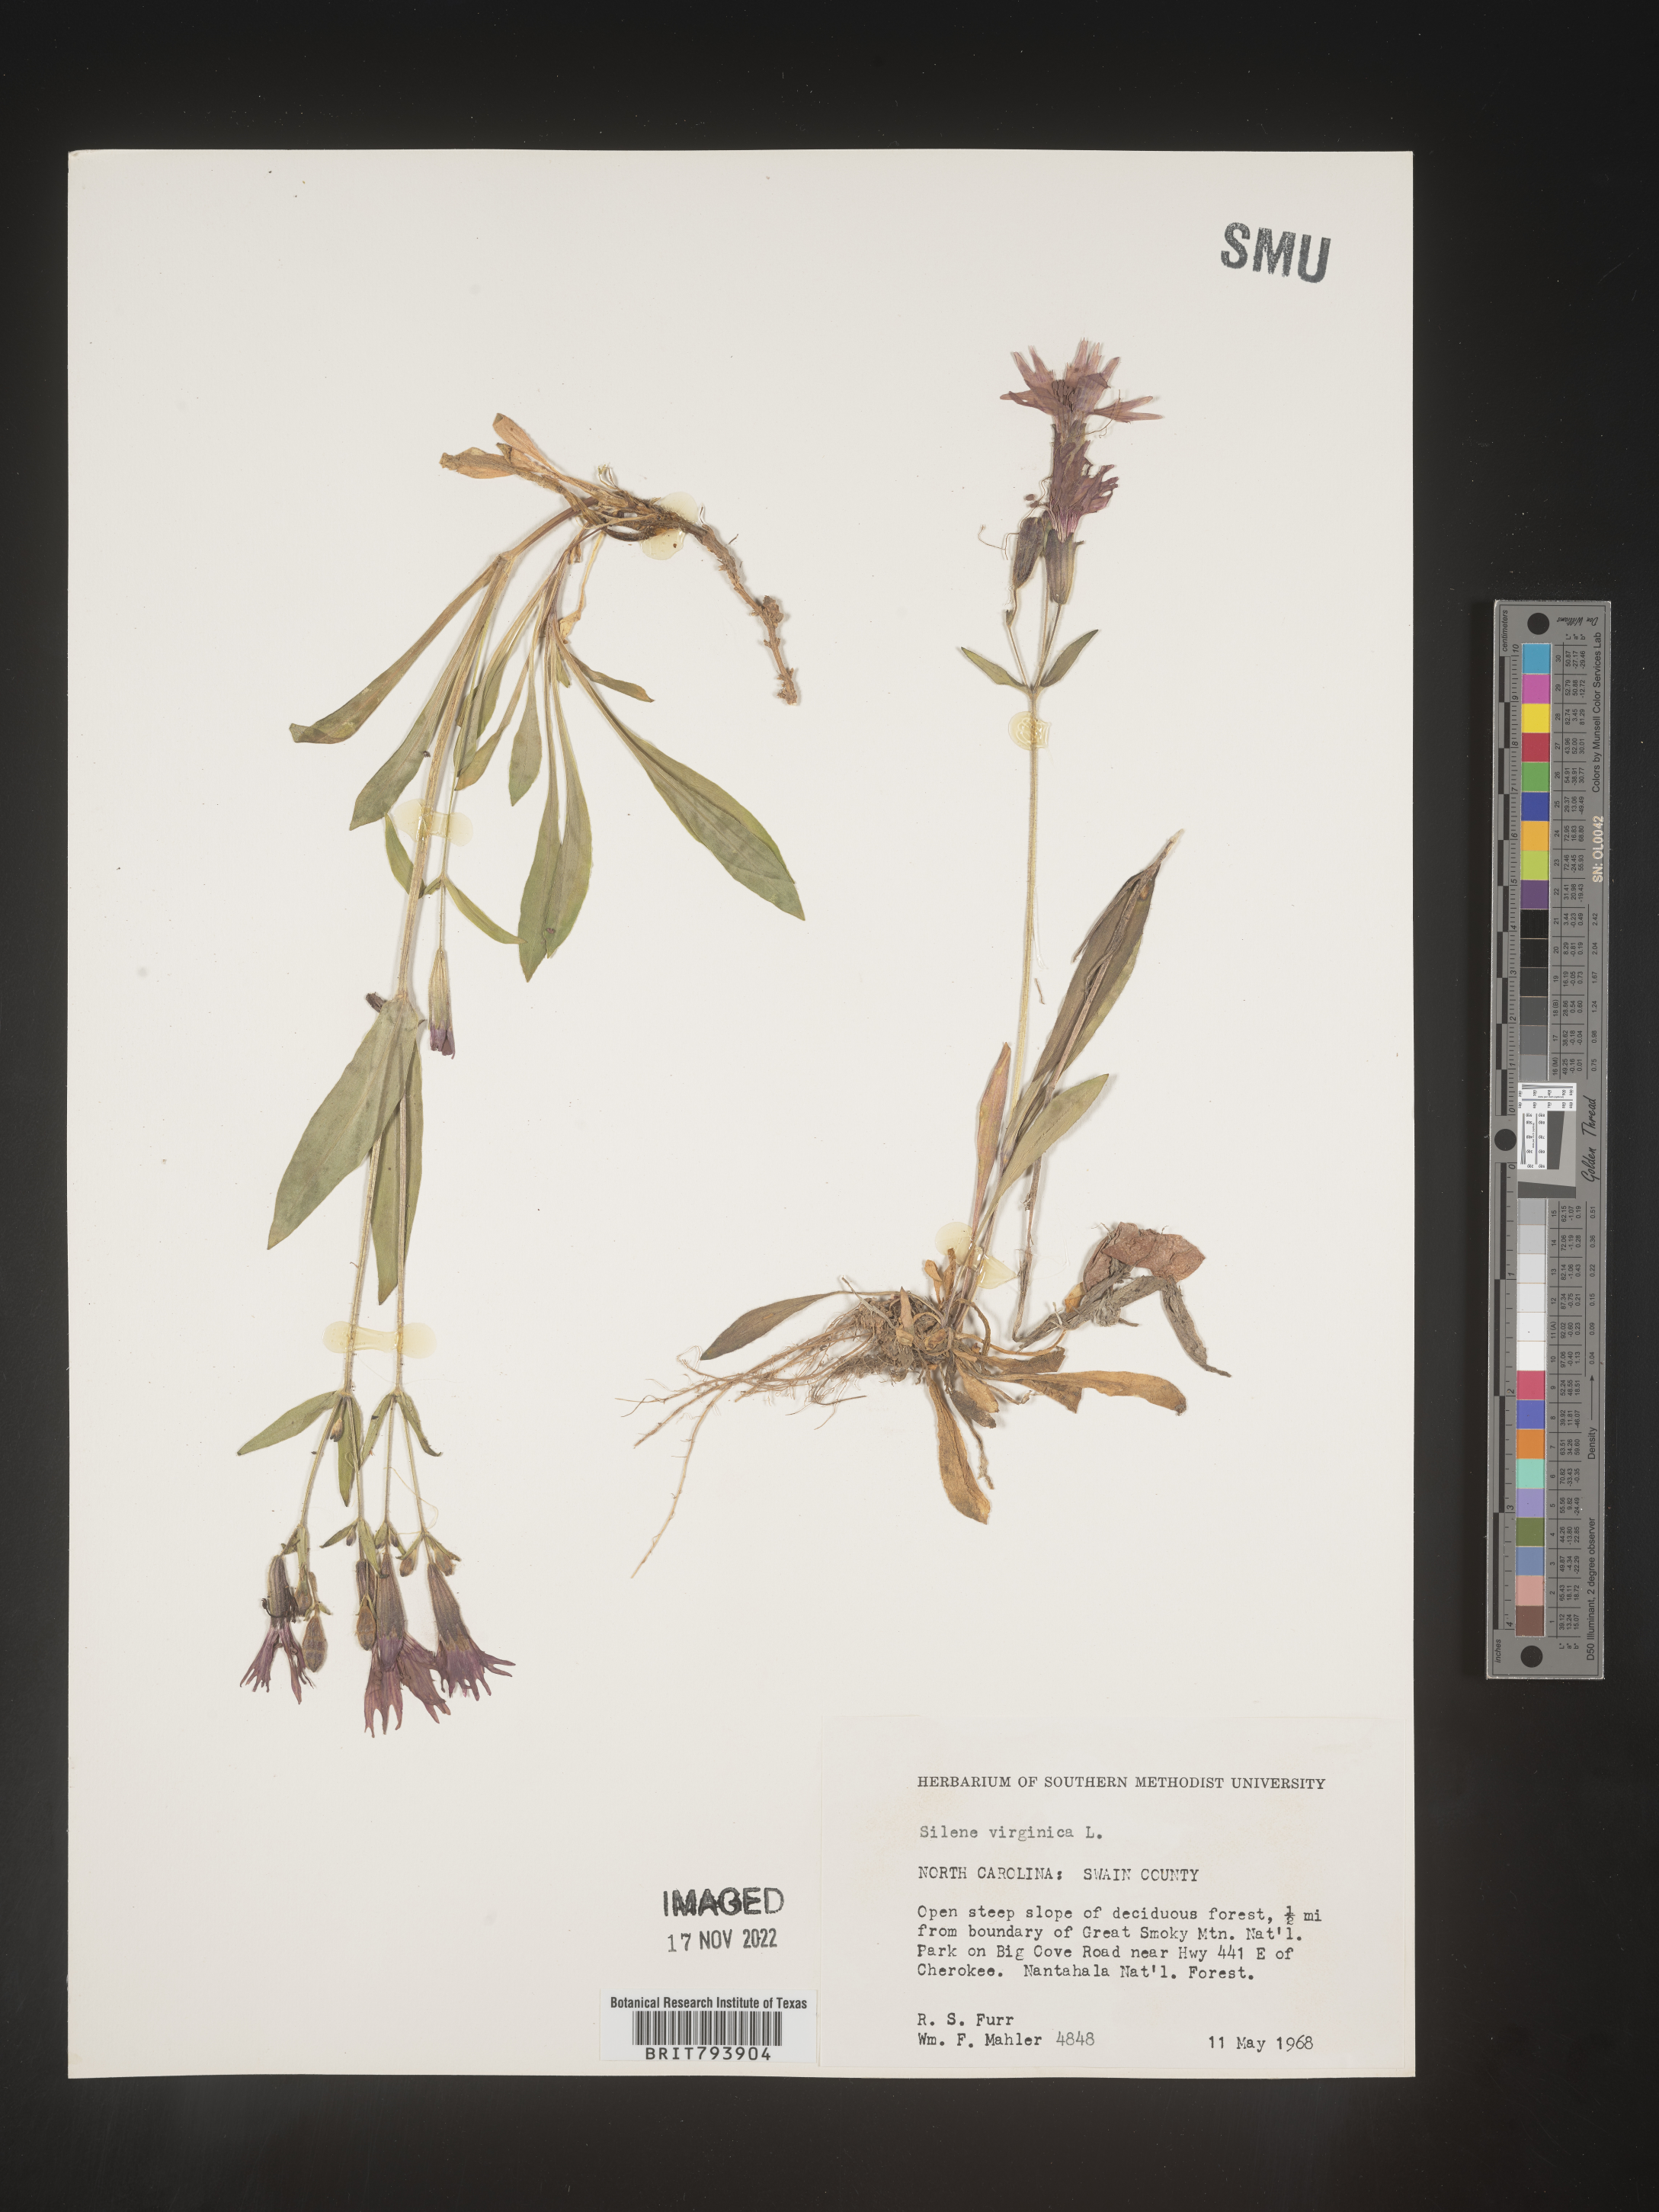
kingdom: Plantae
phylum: Tracheophyta
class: Magnoliopsida
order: Caryophyllales
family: Caryophyllaceae
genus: Silene
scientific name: Silene virginica
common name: Fire-pink
